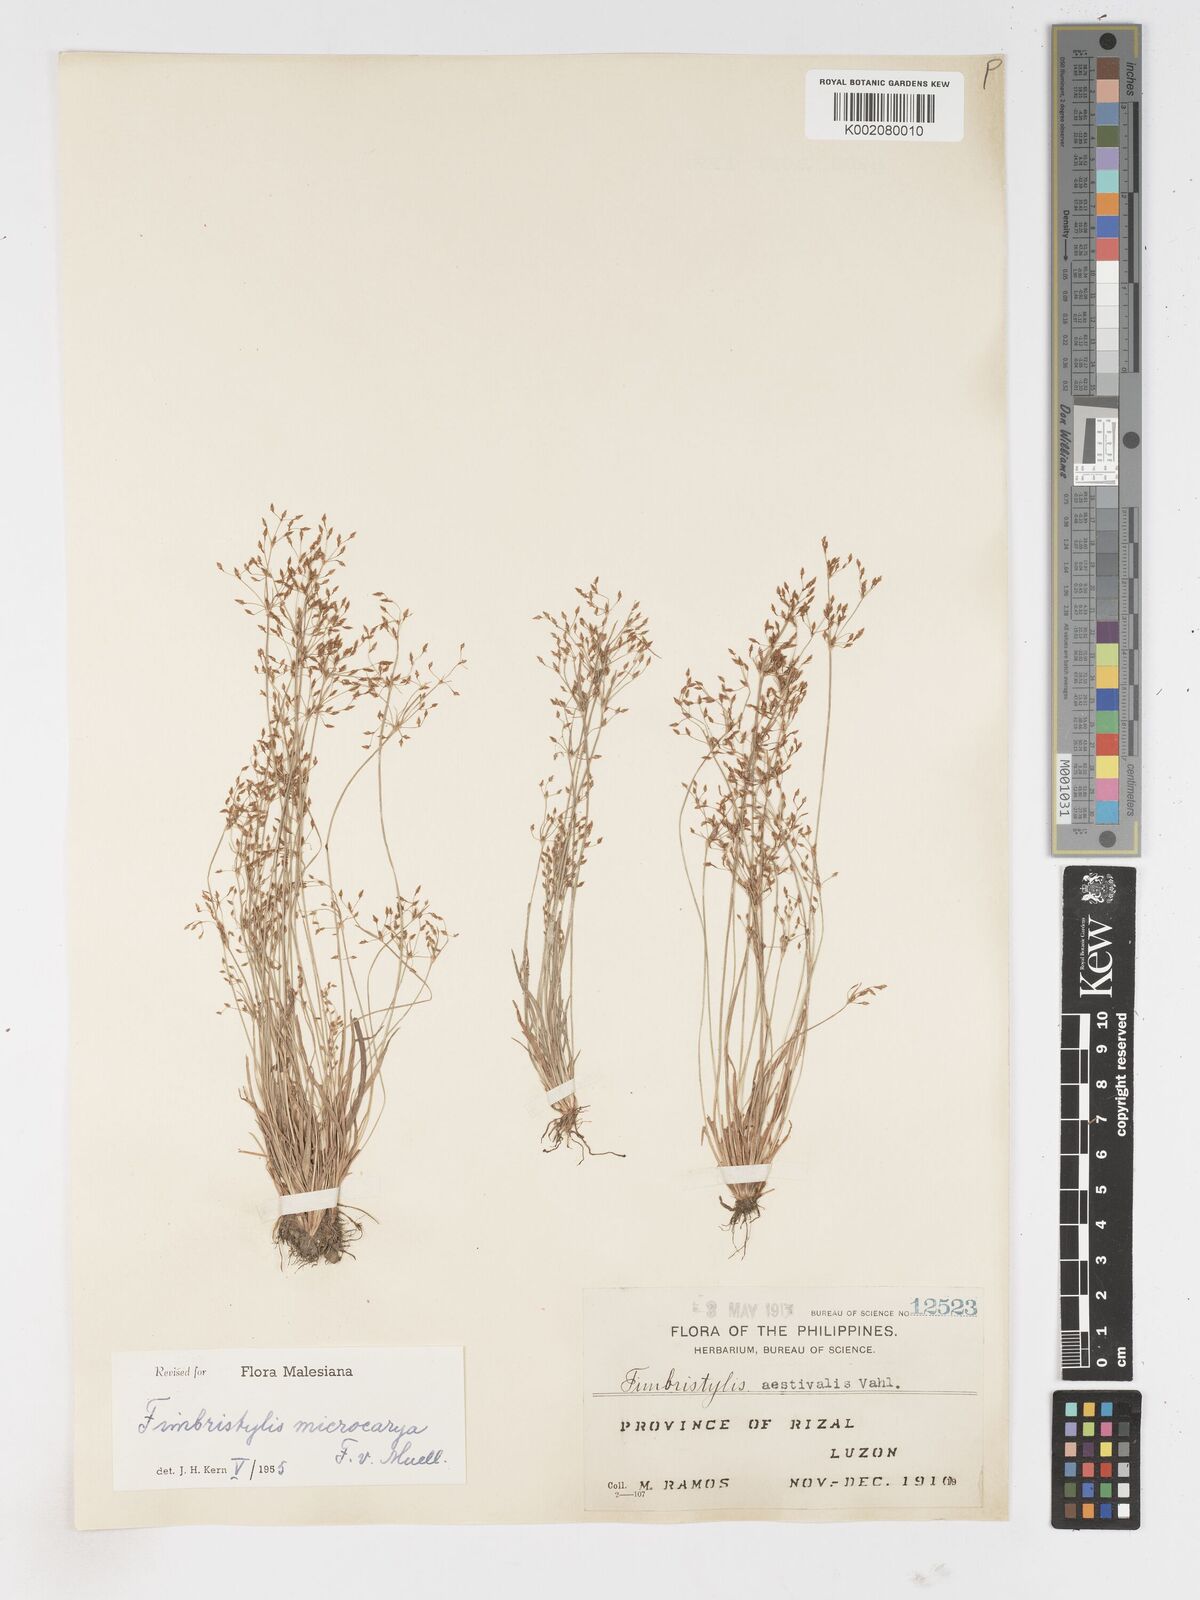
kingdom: Plantae
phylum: Tracheophyta
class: Liliopsida
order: Poales
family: Cyperaceae
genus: Fimbristylis
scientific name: Fimbristylis microcarya
